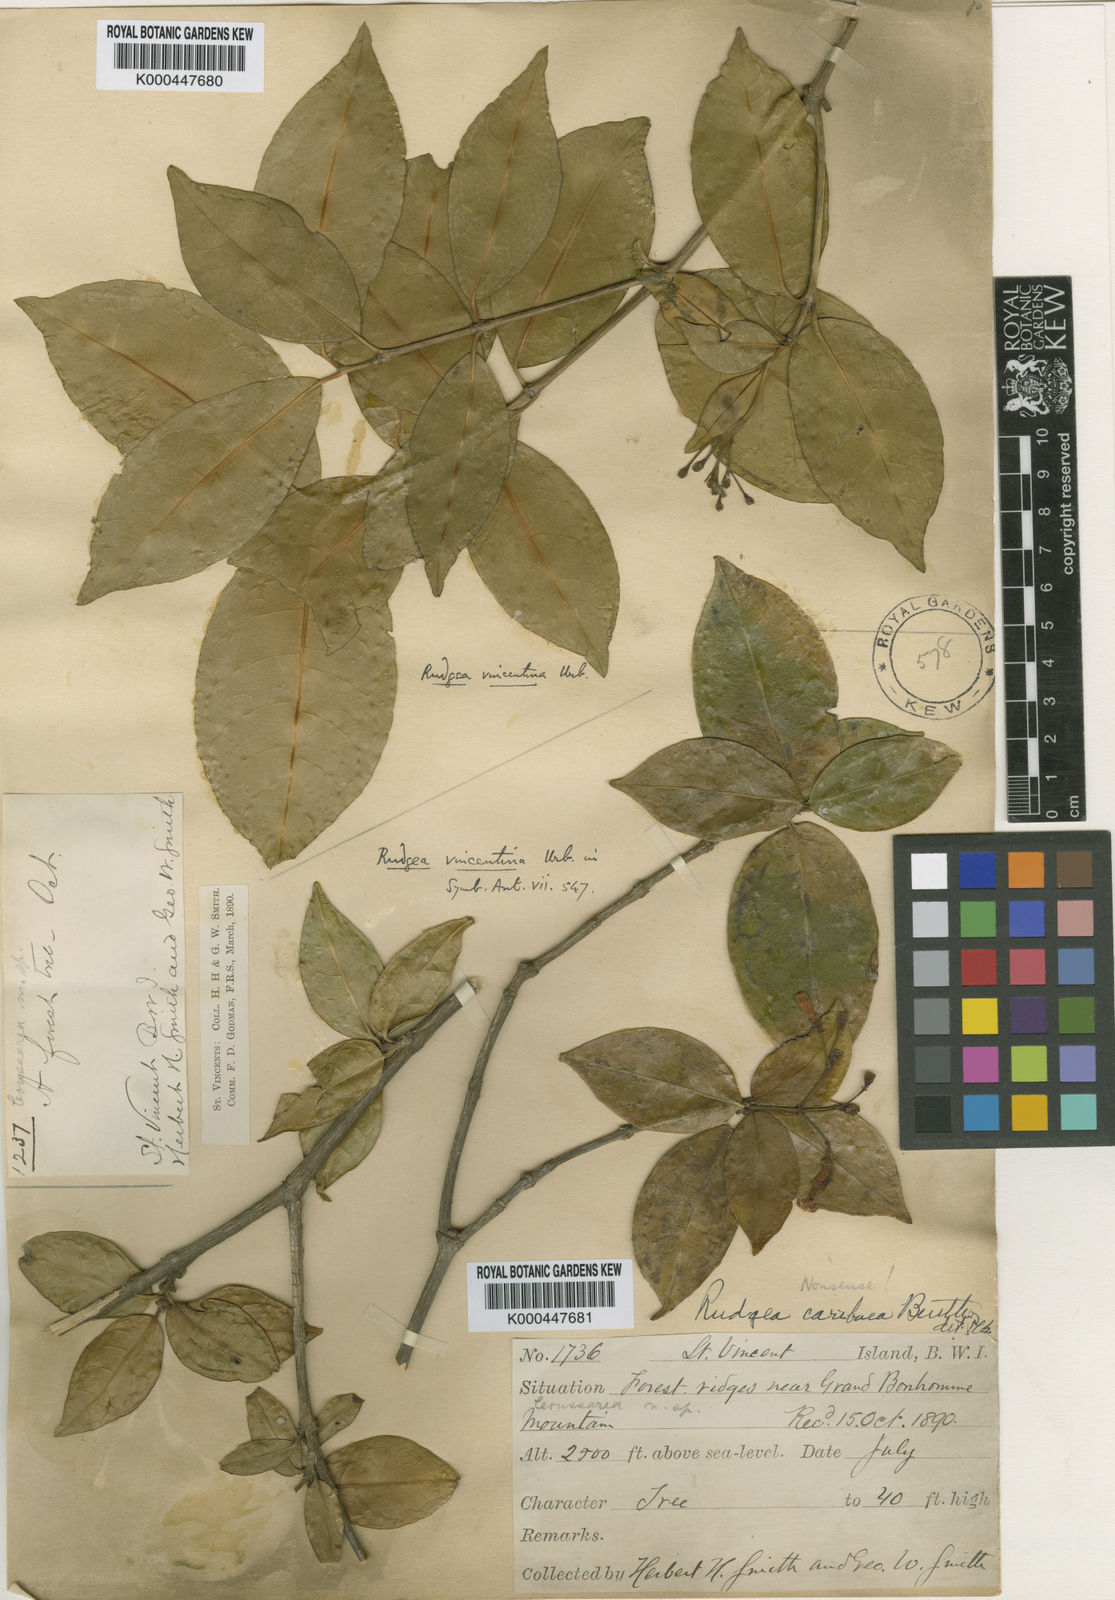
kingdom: Plantae
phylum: Tracheophyta
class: Magnoliopsida
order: Gentianales
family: Rubiaceae
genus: Rudgea
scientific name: Rudgea vincentina
